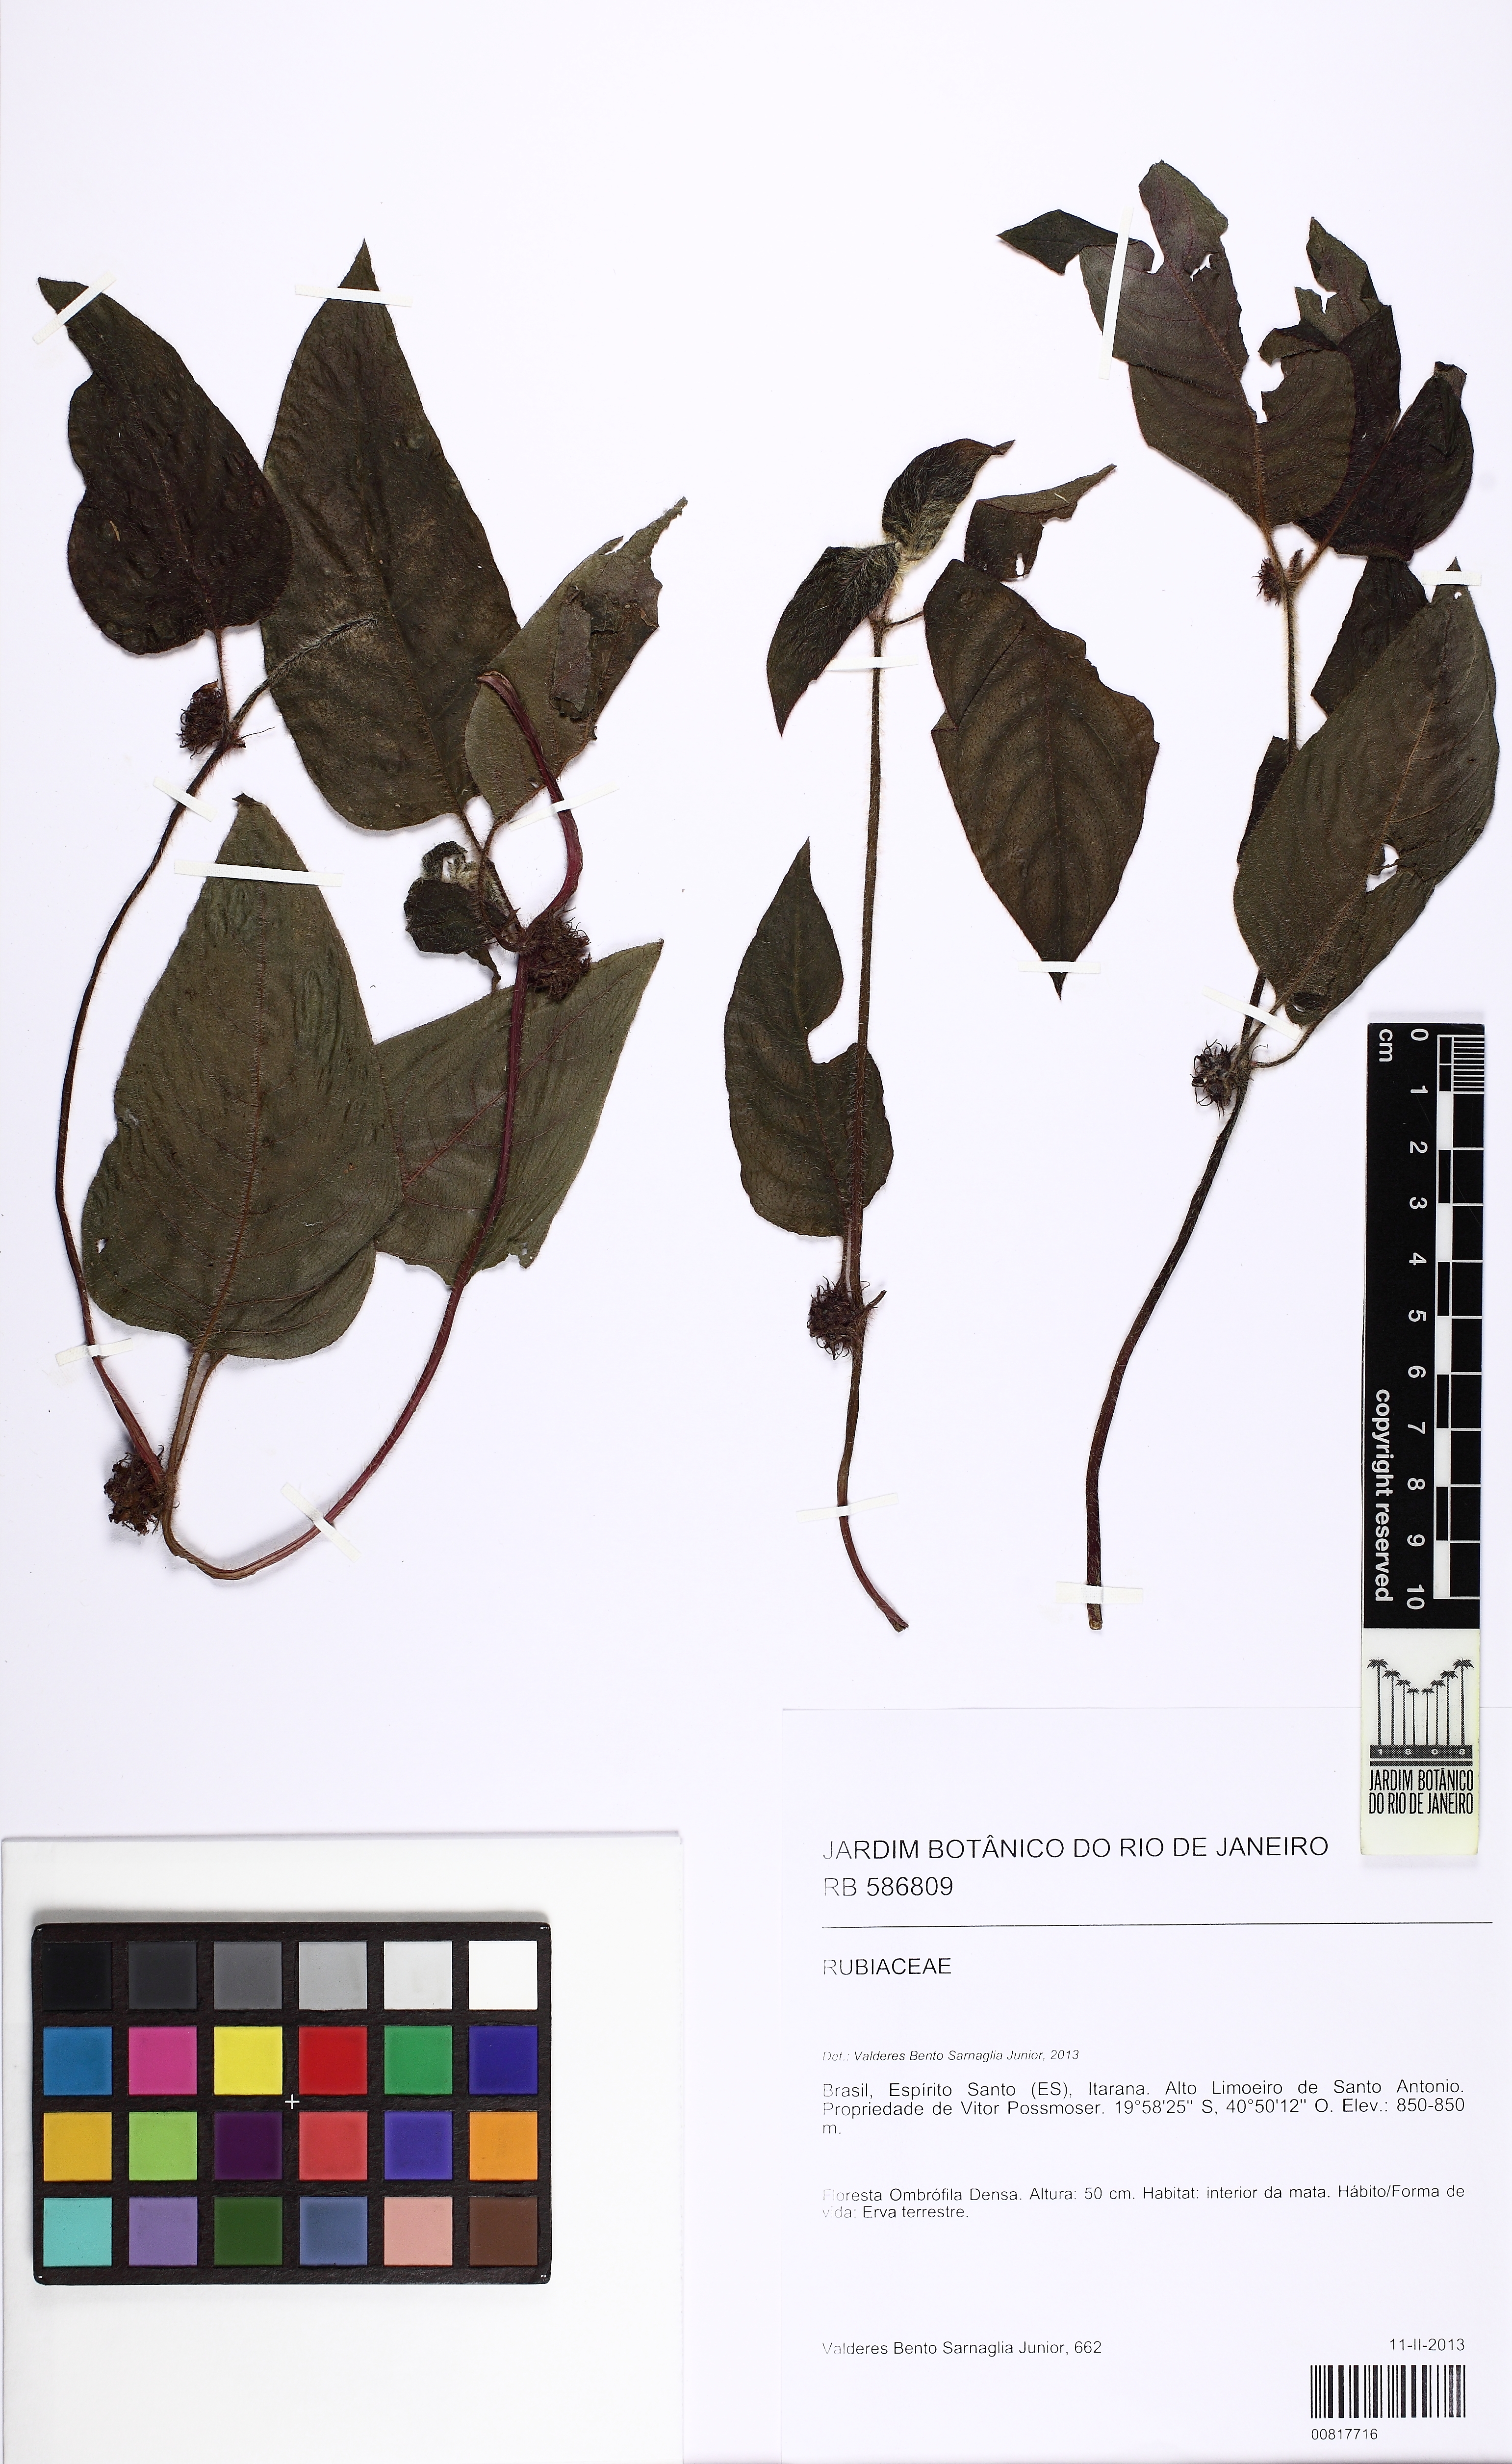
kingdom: Plantae
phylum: Tracheophyta
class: Magnoliopsida
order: Gentianales
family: Rubiaceae
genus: Coccocypselum
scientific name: Coccocypselum
